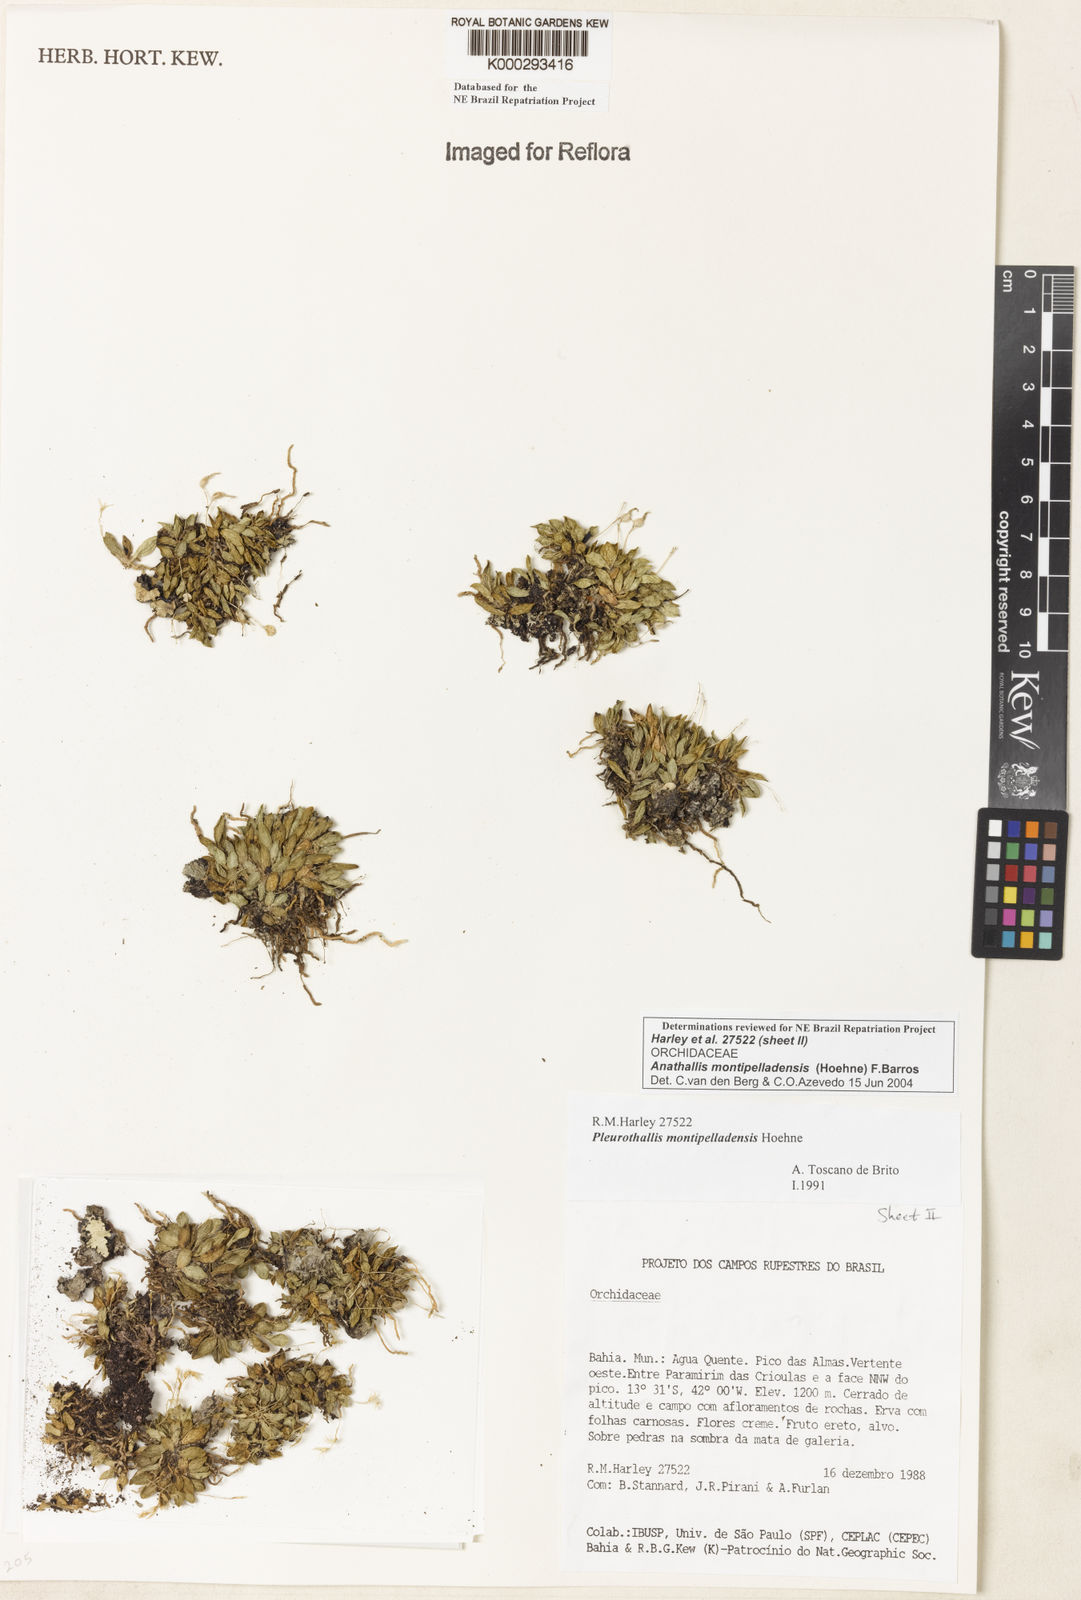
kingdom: Plantae
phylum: Tracheophyta
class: Liliopsida
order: Asparagales
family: Orchidaceae
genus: Anathallis
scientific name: Anathallis montipelladensis
